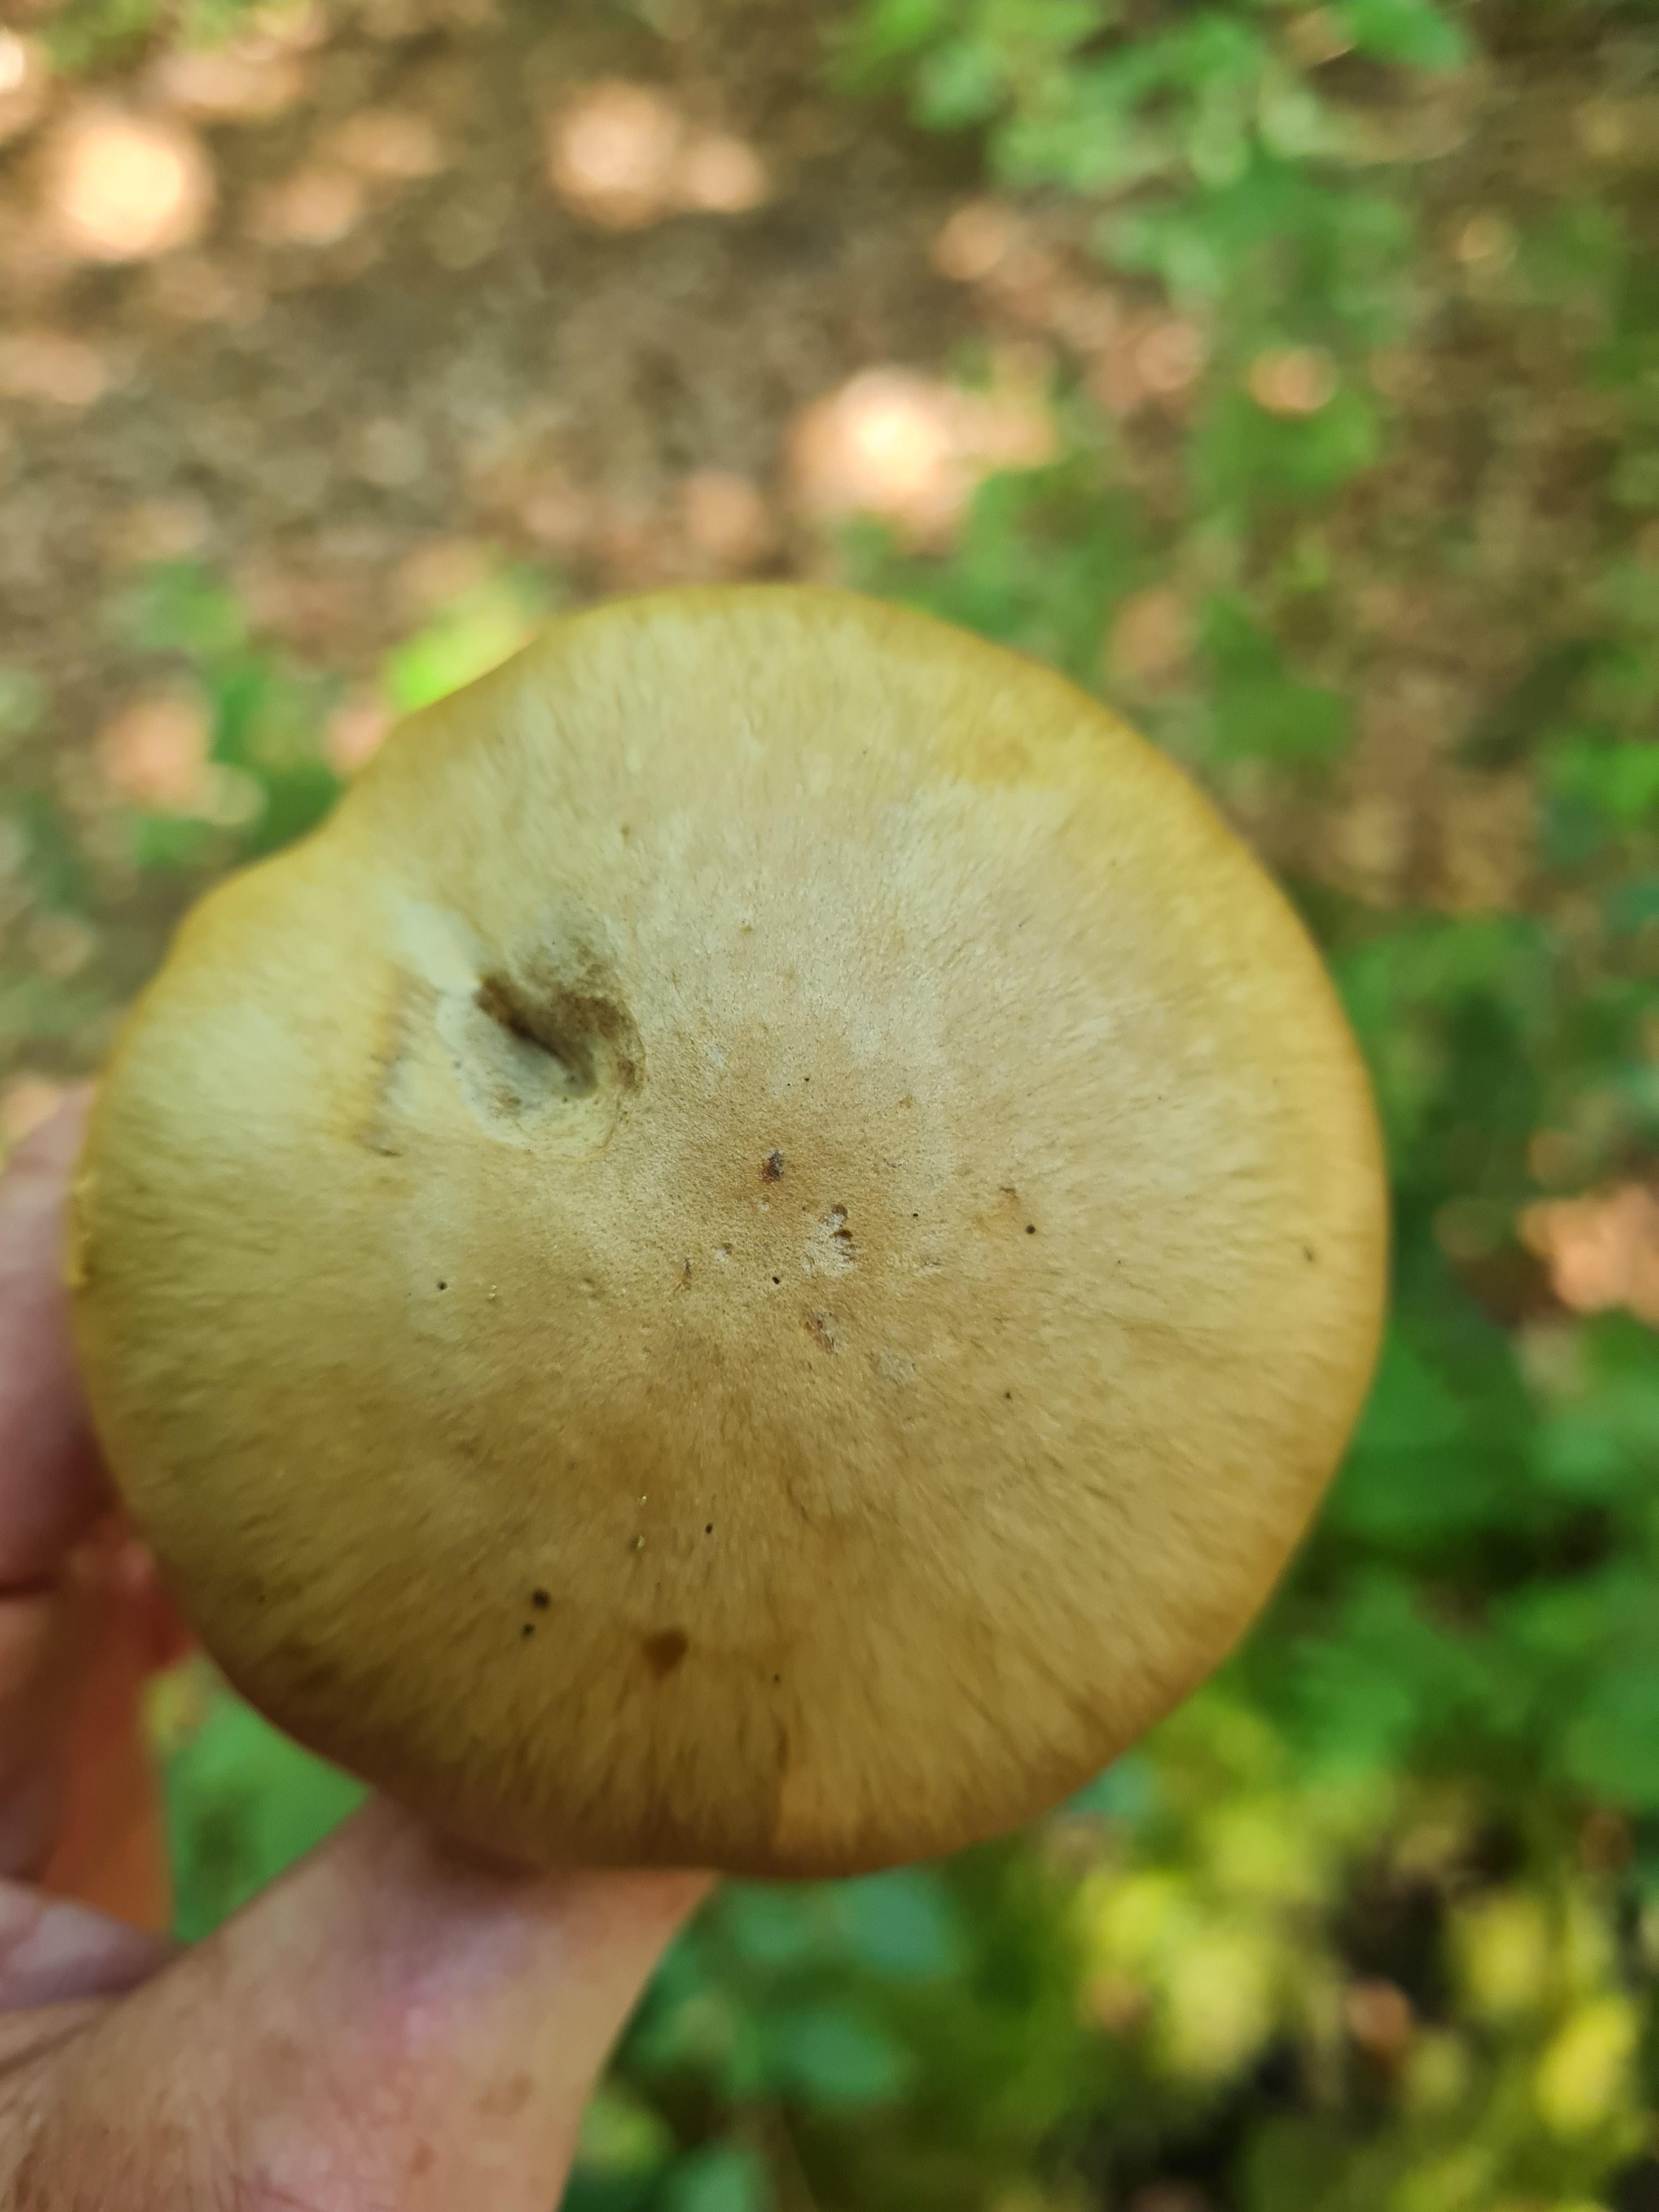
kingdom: Fungi
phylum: Basidiomycota
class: Agaricomycetes
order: Agaricales
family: Cortinariaceae
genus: Cortinarius
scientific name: Cortinarius subtortus
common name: olivengul slørhat
